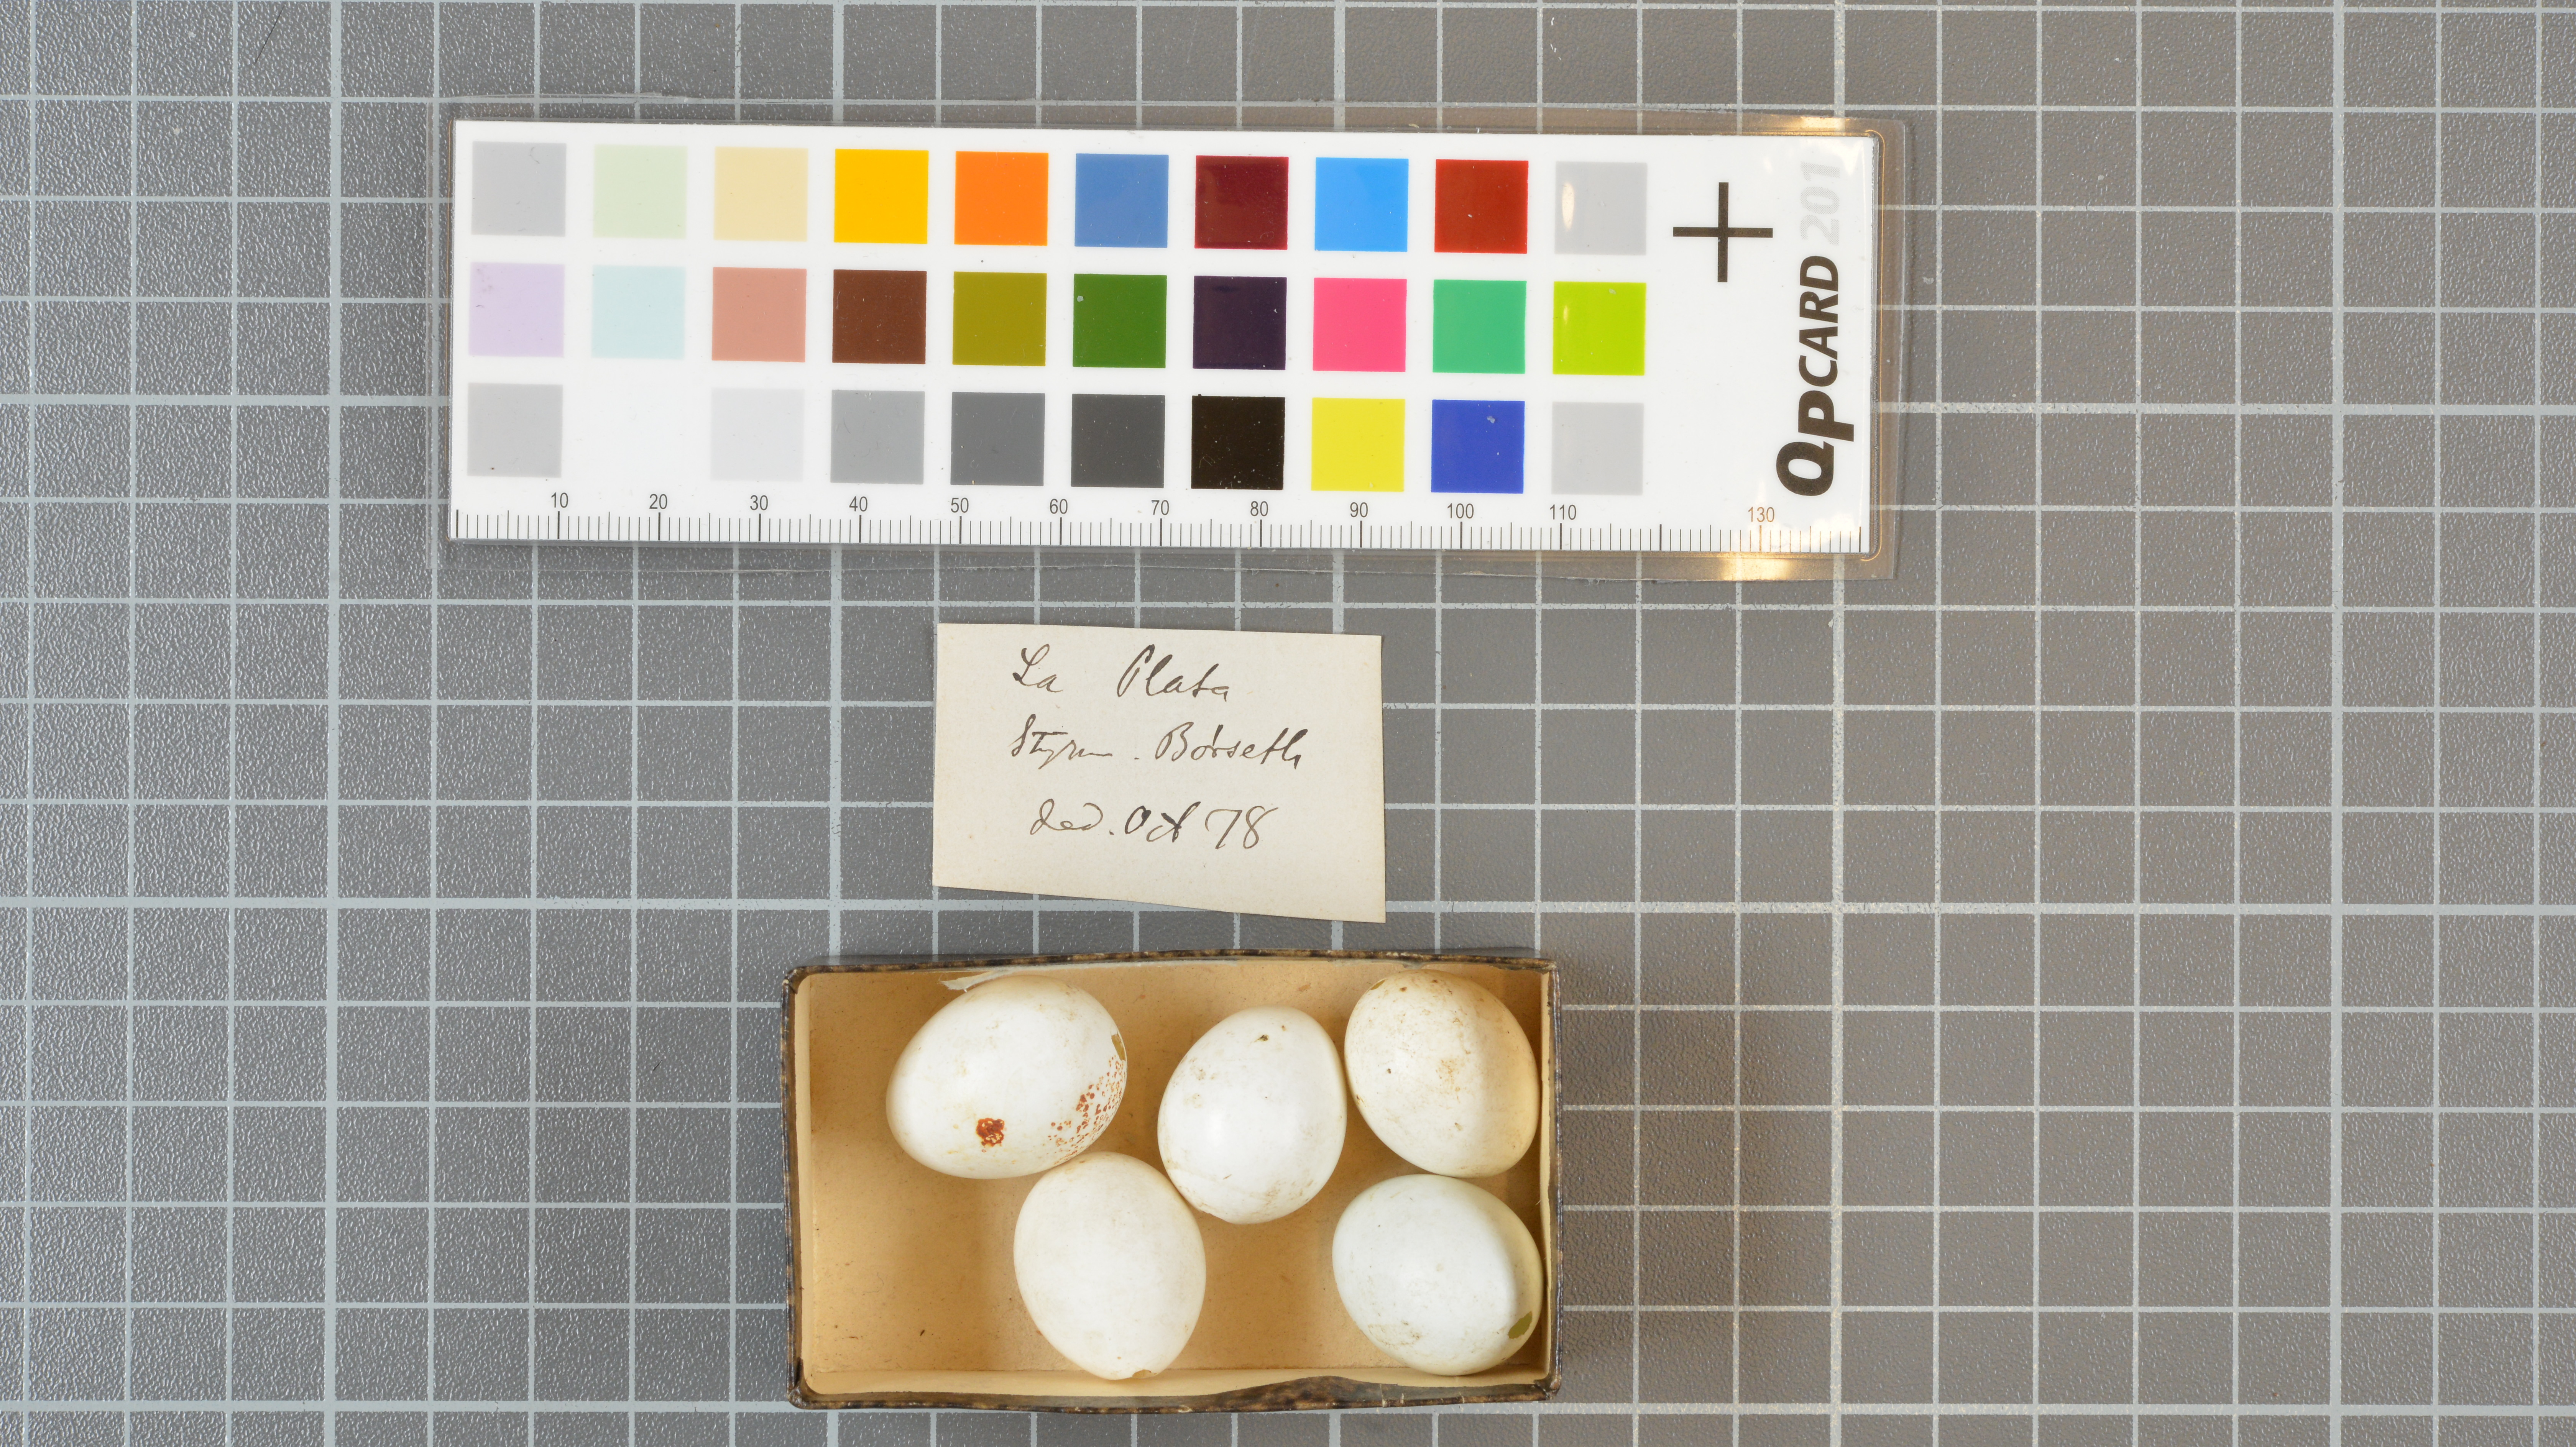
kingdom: Animalia
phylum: Chordata
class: Aves
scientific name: Aves
